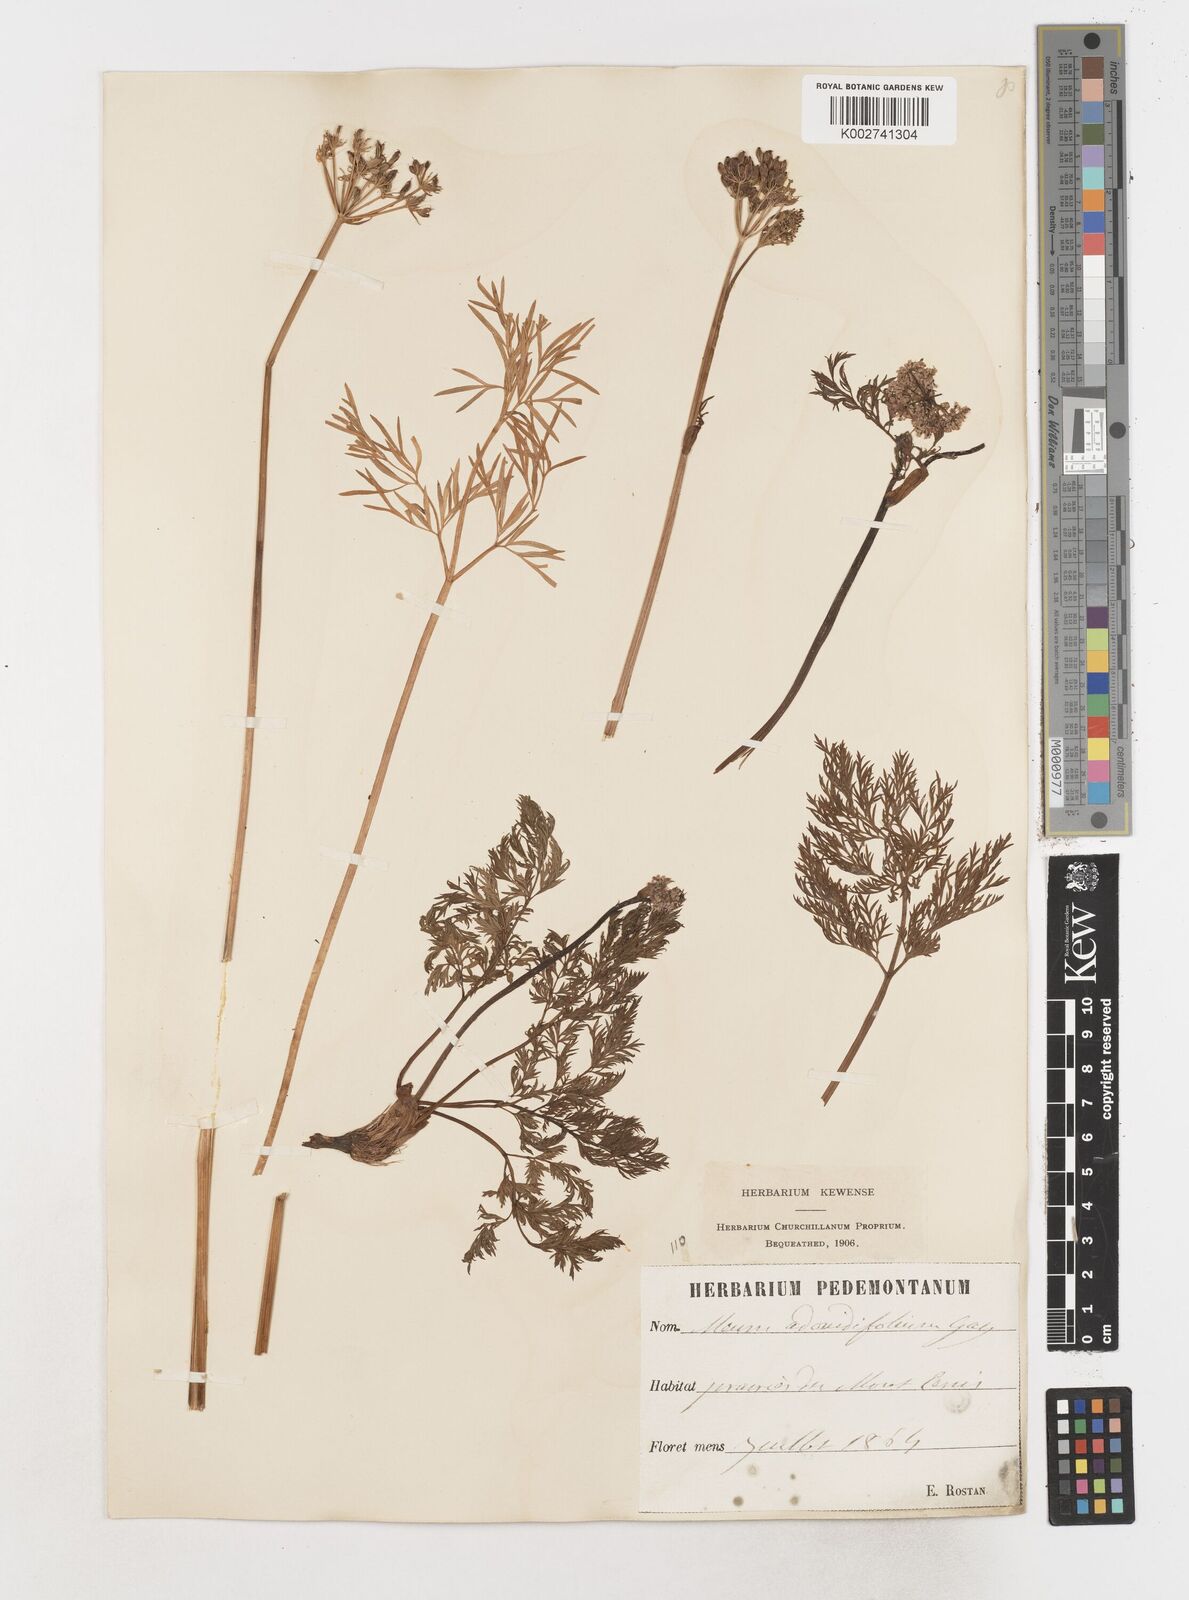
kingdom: Plantae
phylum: Tracheophyta
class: Magnoliopsida
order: Apiales
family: Apiaceae
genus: Mutellina
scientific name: Mutellina adonidifolia
